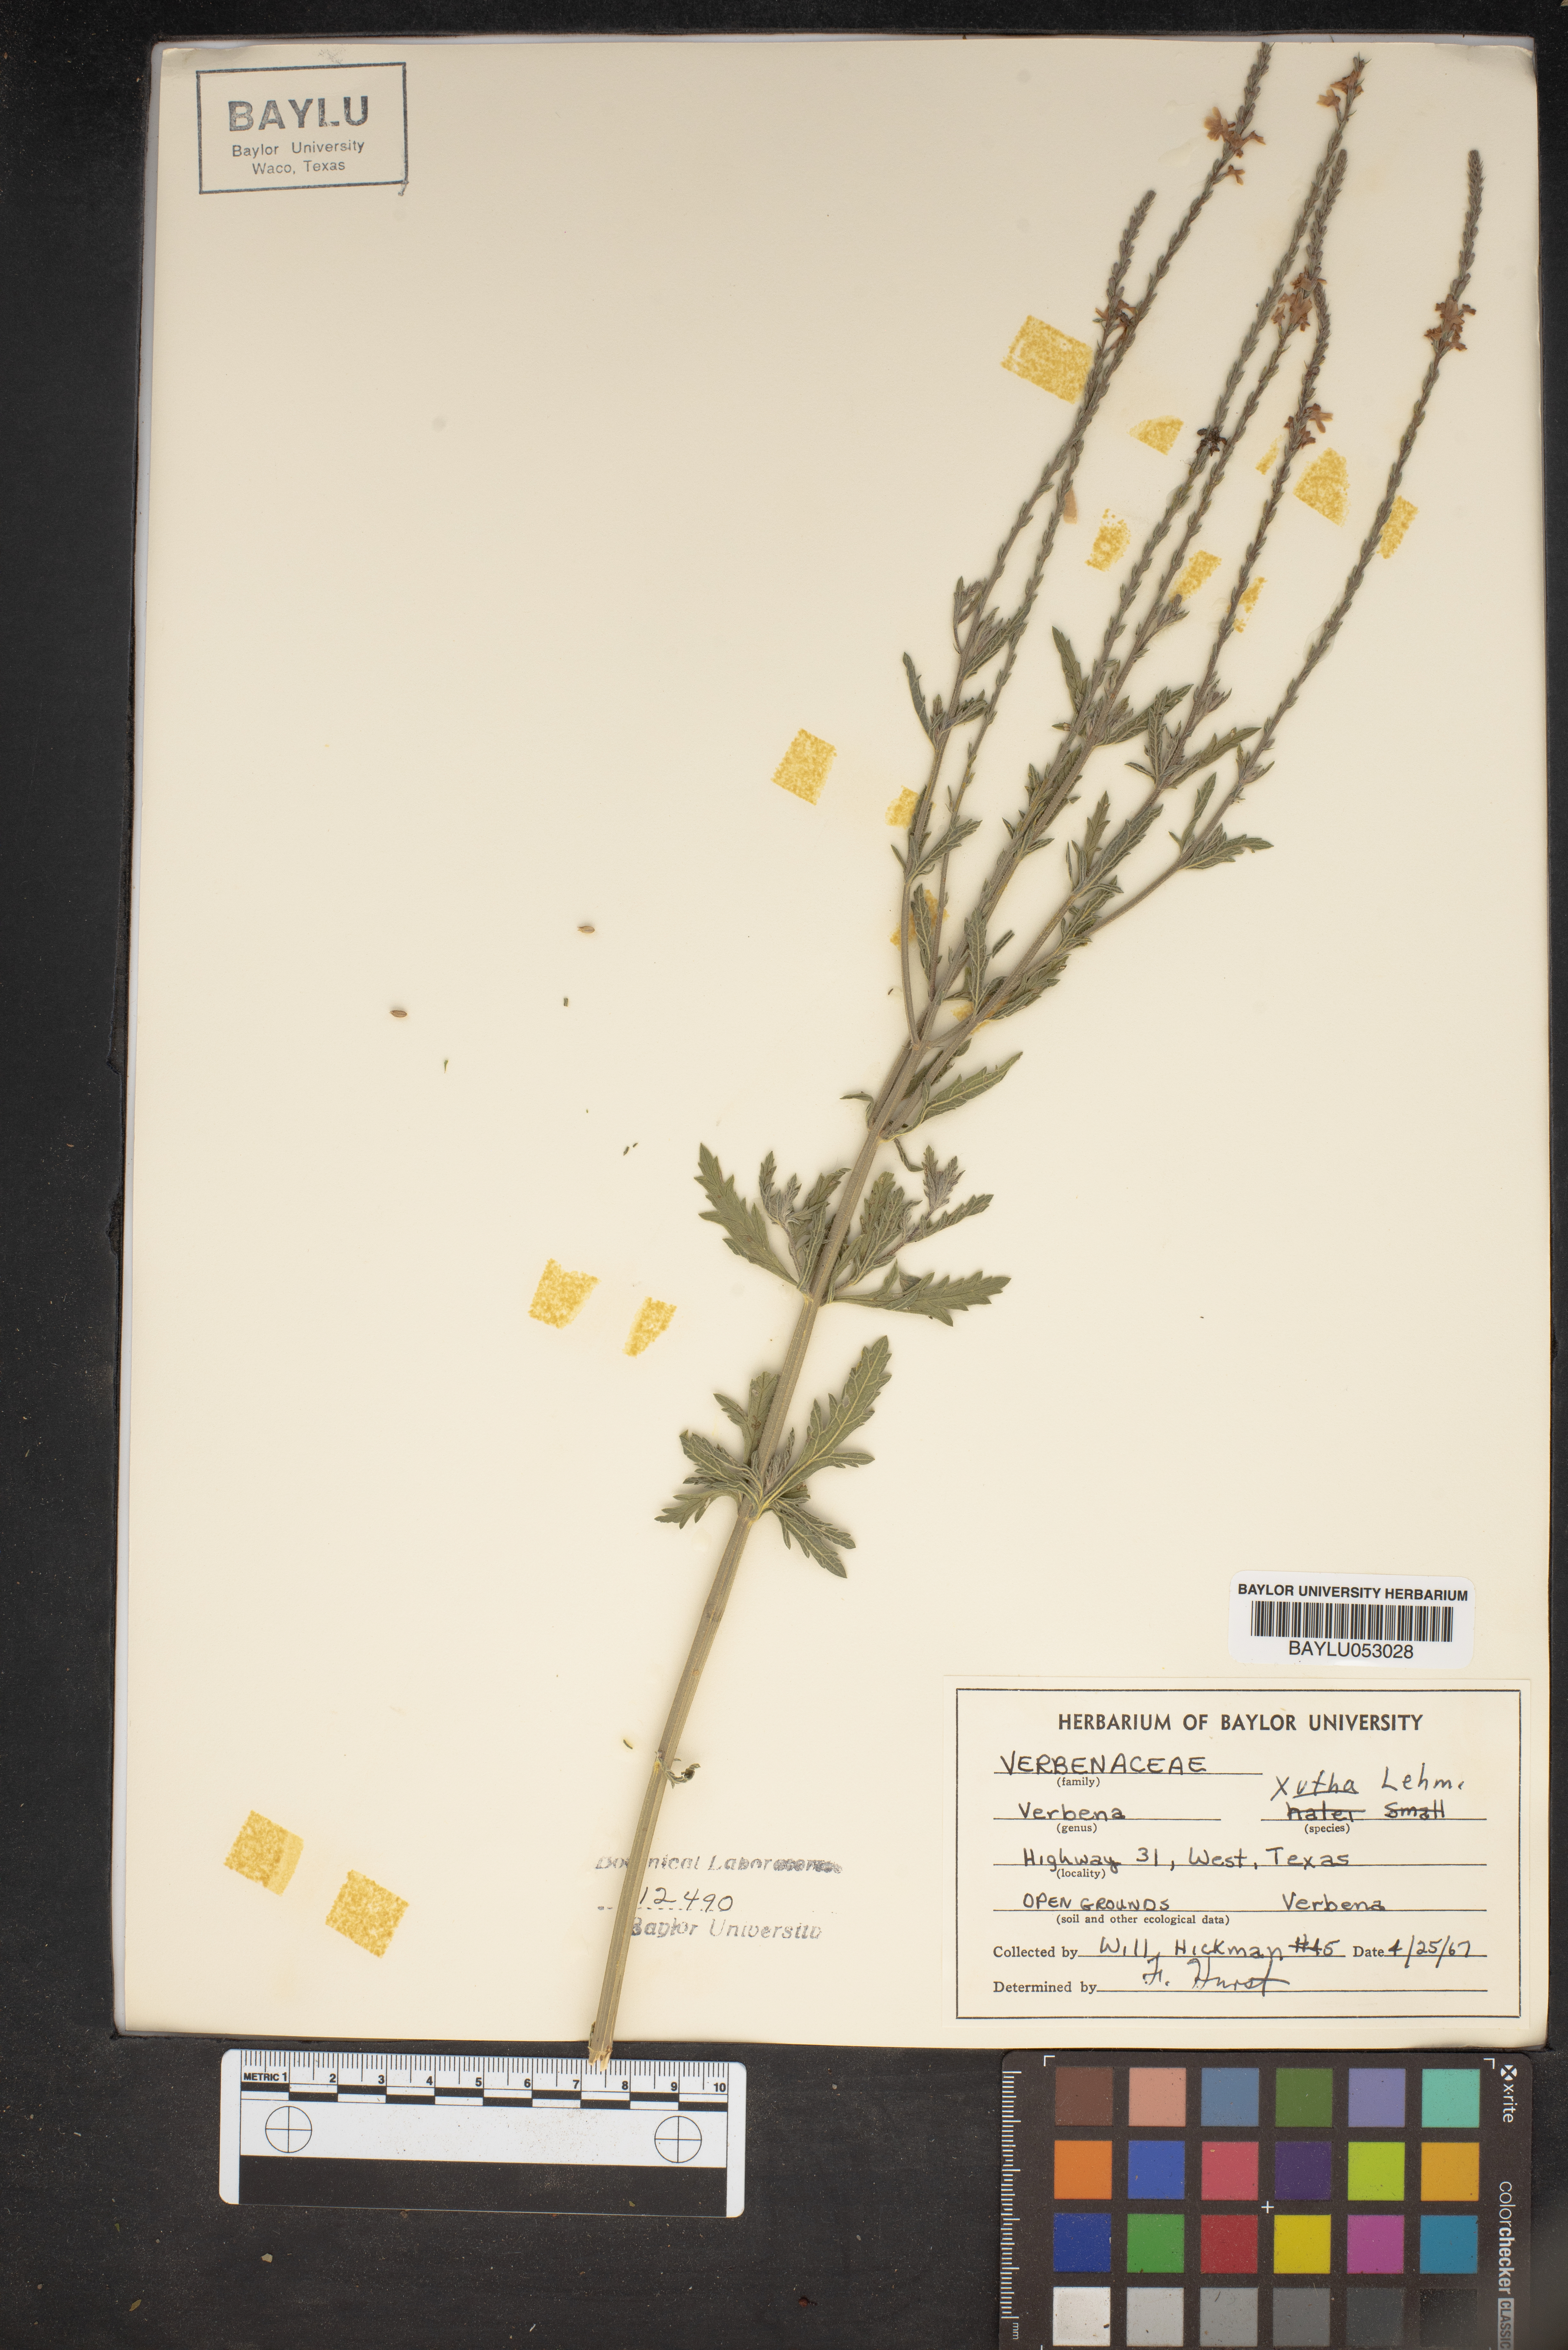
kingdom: Plantae
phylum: Tracheophyta
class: Magnoliopsida
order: Lamiales
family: Verbenaceae
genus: Verbena
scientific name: Verbena xutha
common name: Gulf vervain
